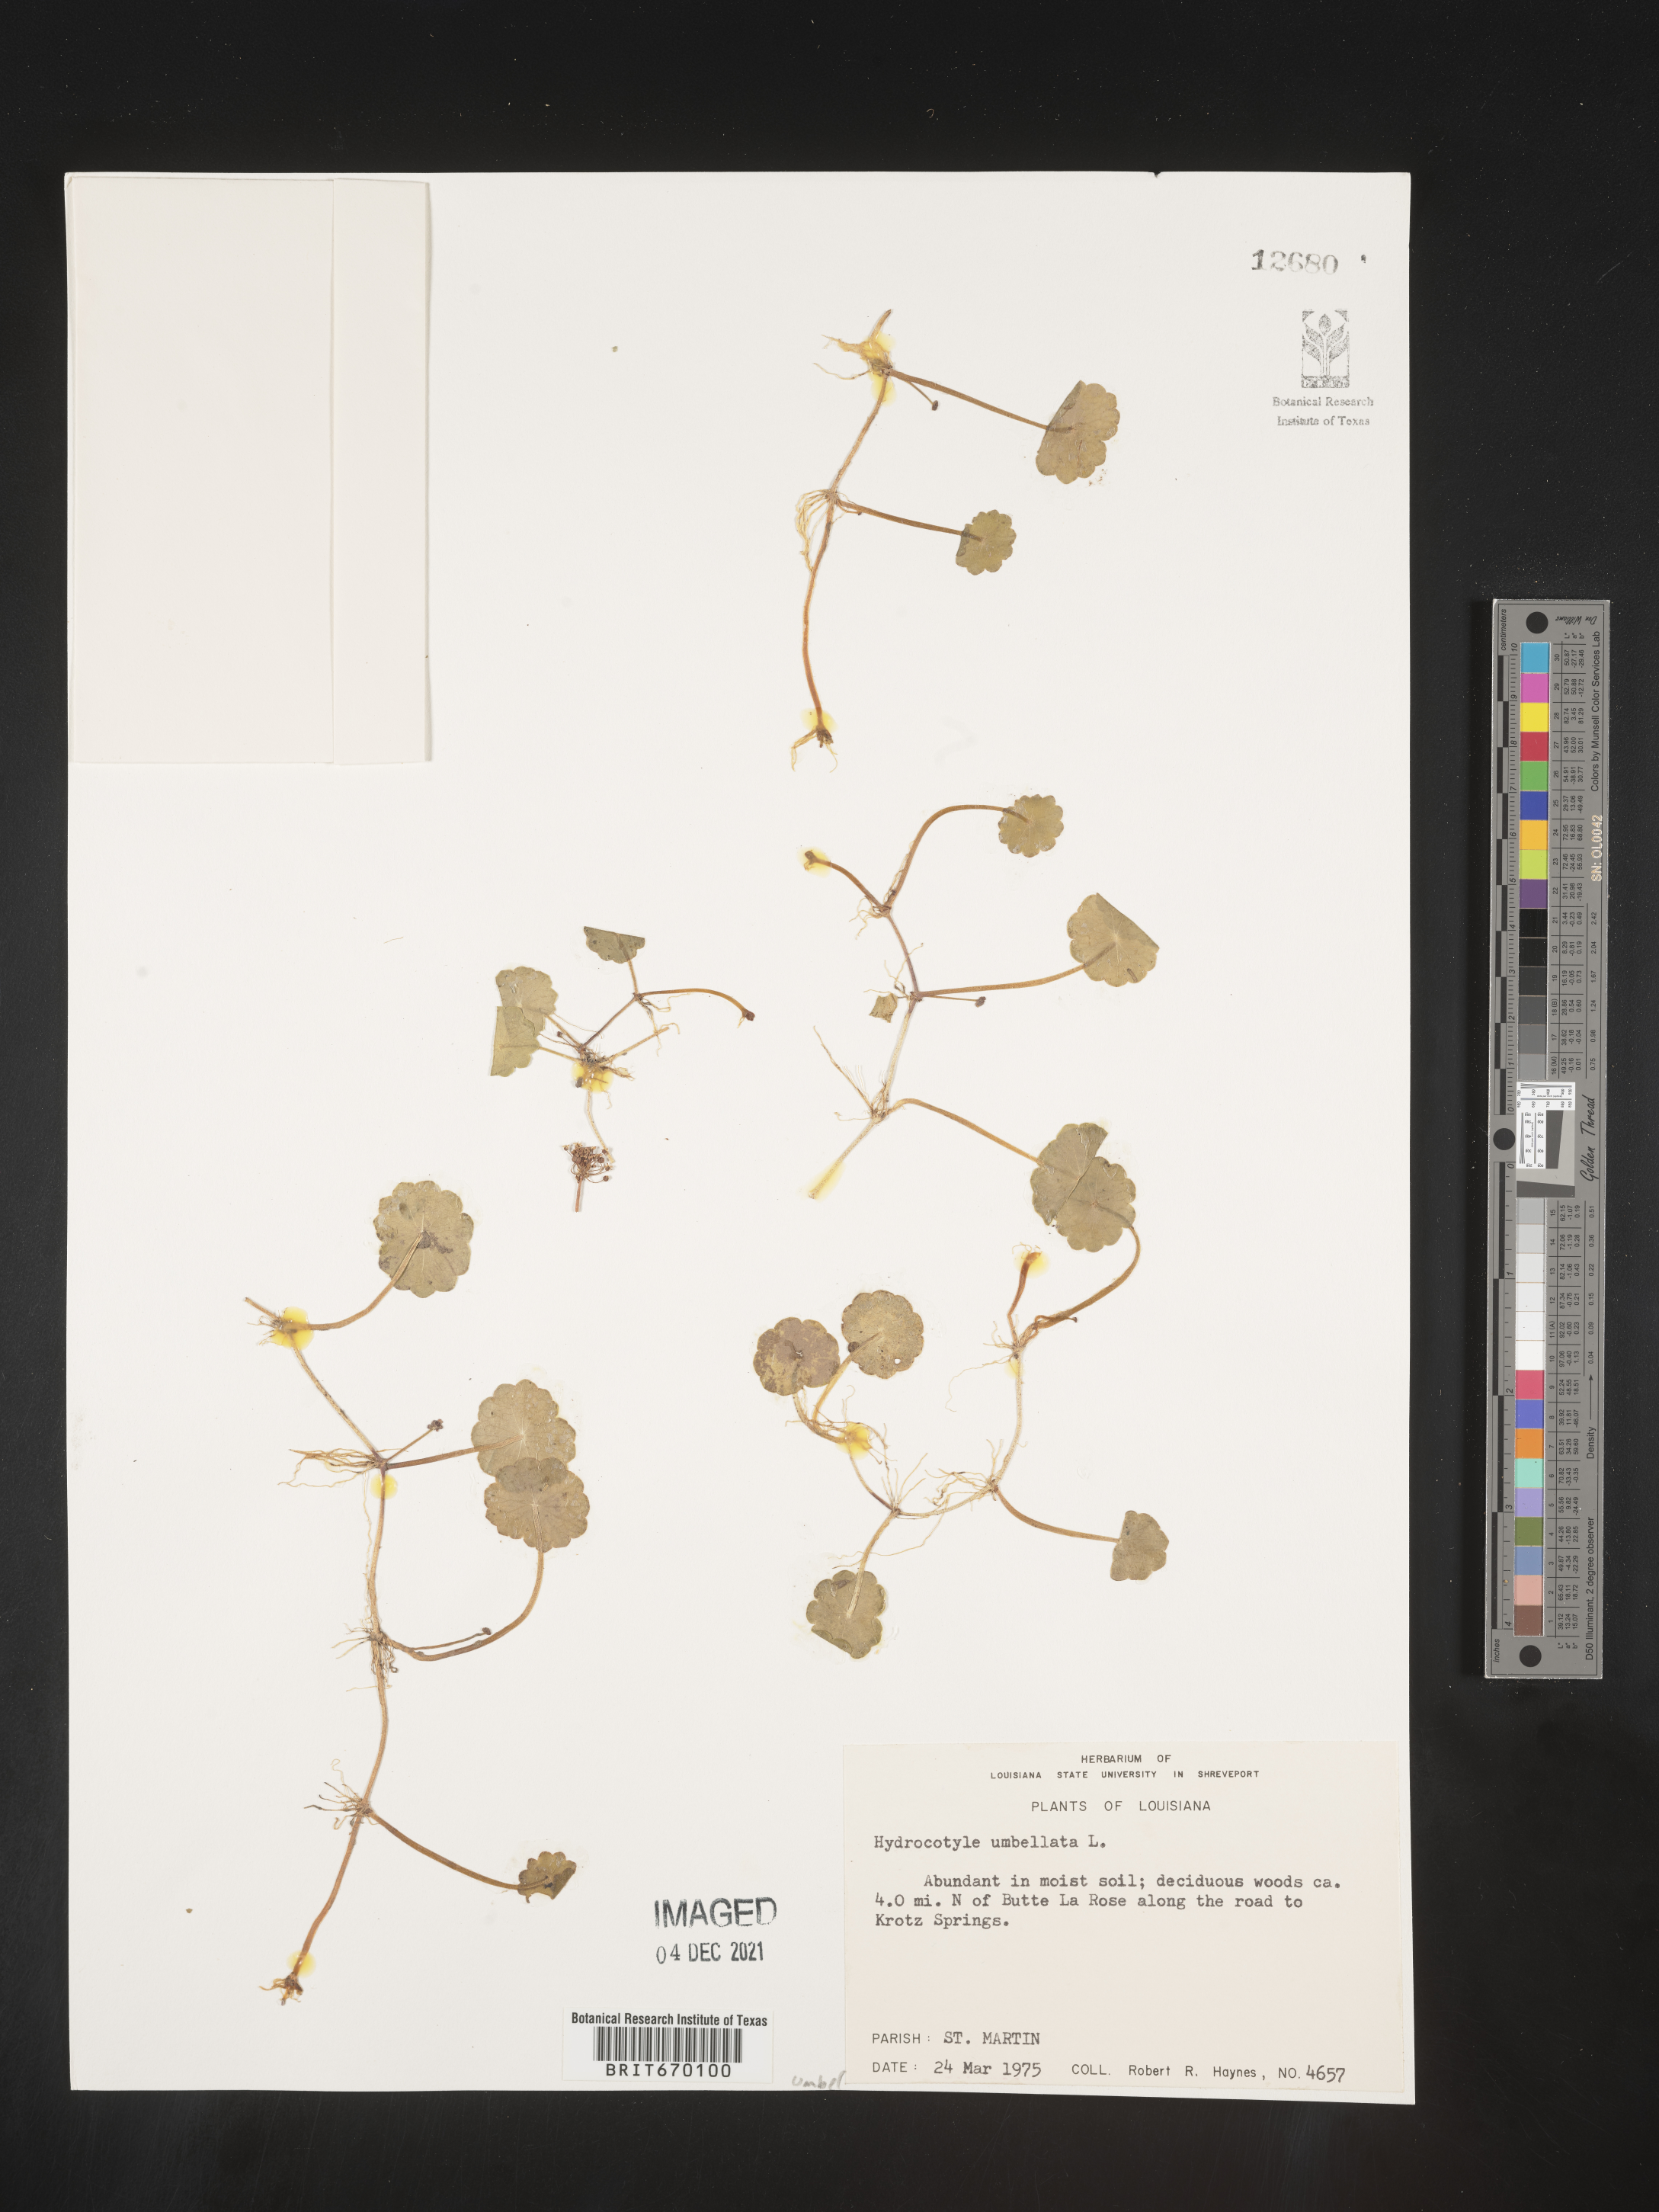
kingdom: Plantae
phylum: Tracheophyta
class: Magnoliopsida
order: Apiales
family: Araliaceae
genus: Hydrocotyle
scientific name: Hydrocotyle umbellata
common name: Water pennywort
